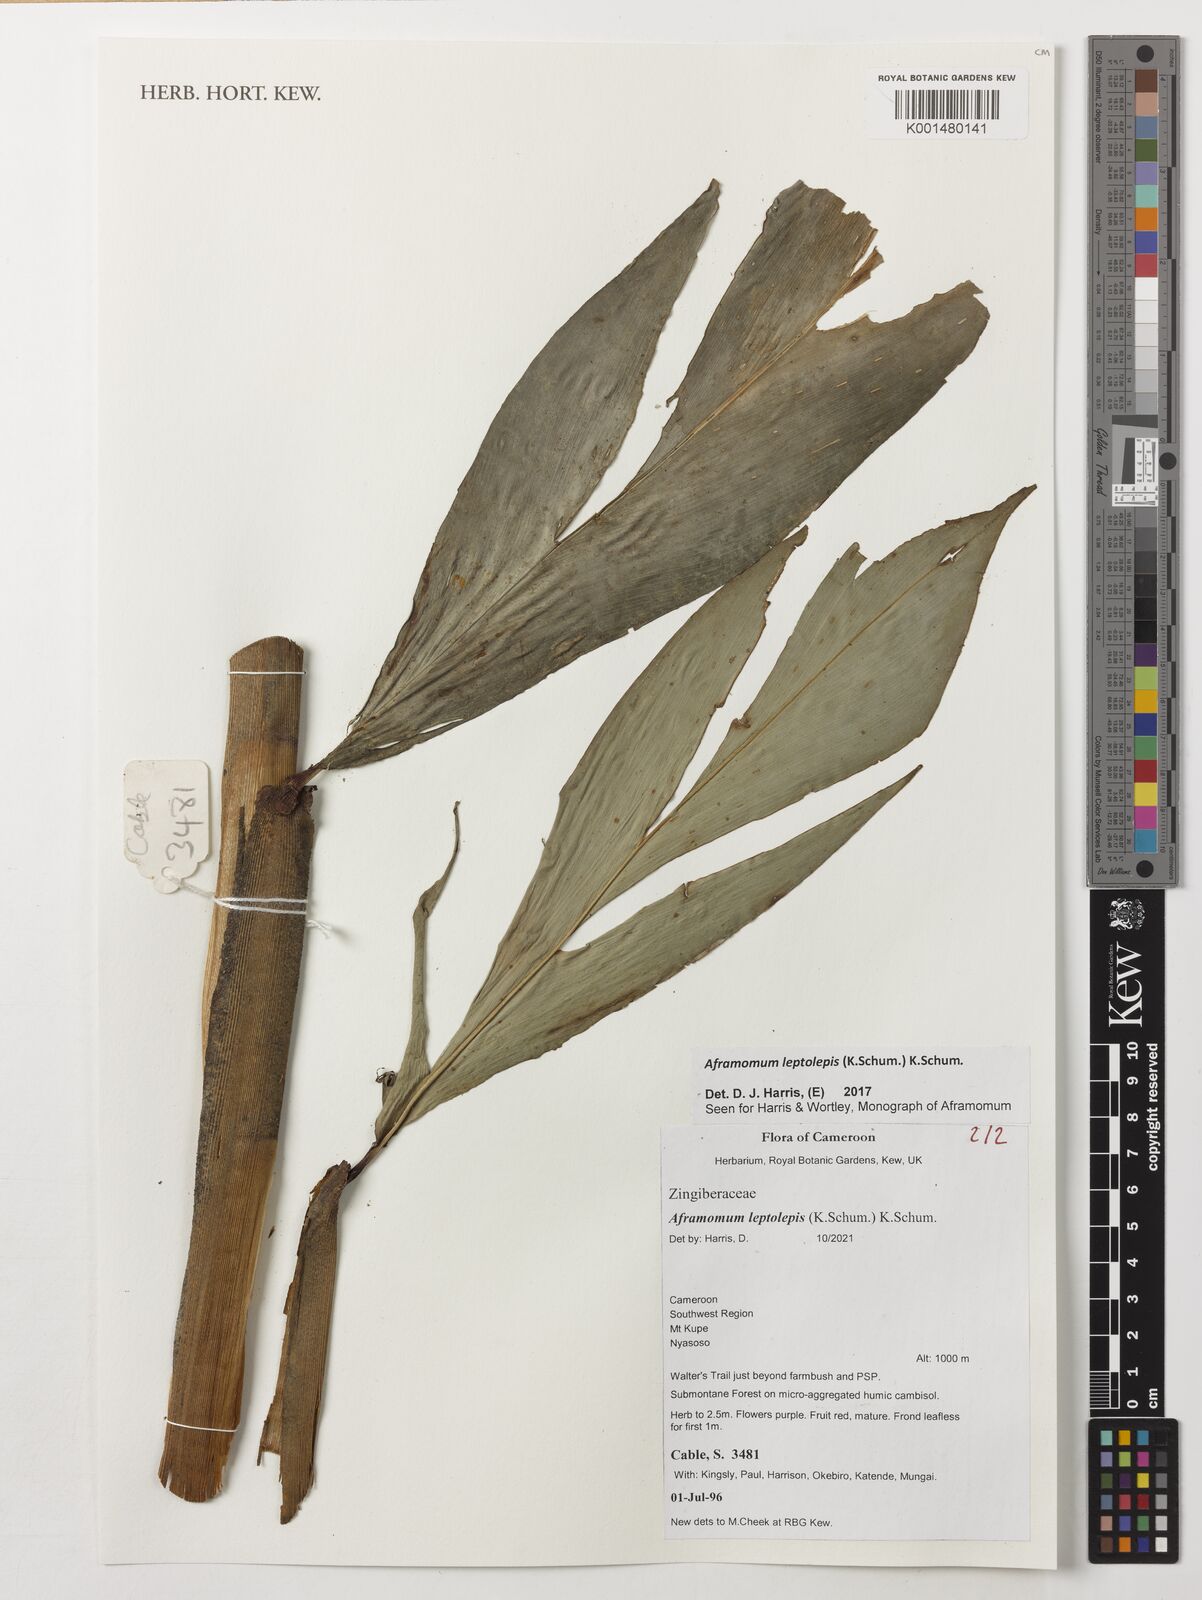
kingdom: Plantae
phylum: Tracheophyta
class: Liliopsida
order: Zingiberales
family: Zingiberaceae
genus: Aframomum
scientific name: Aframomum leptolepis
